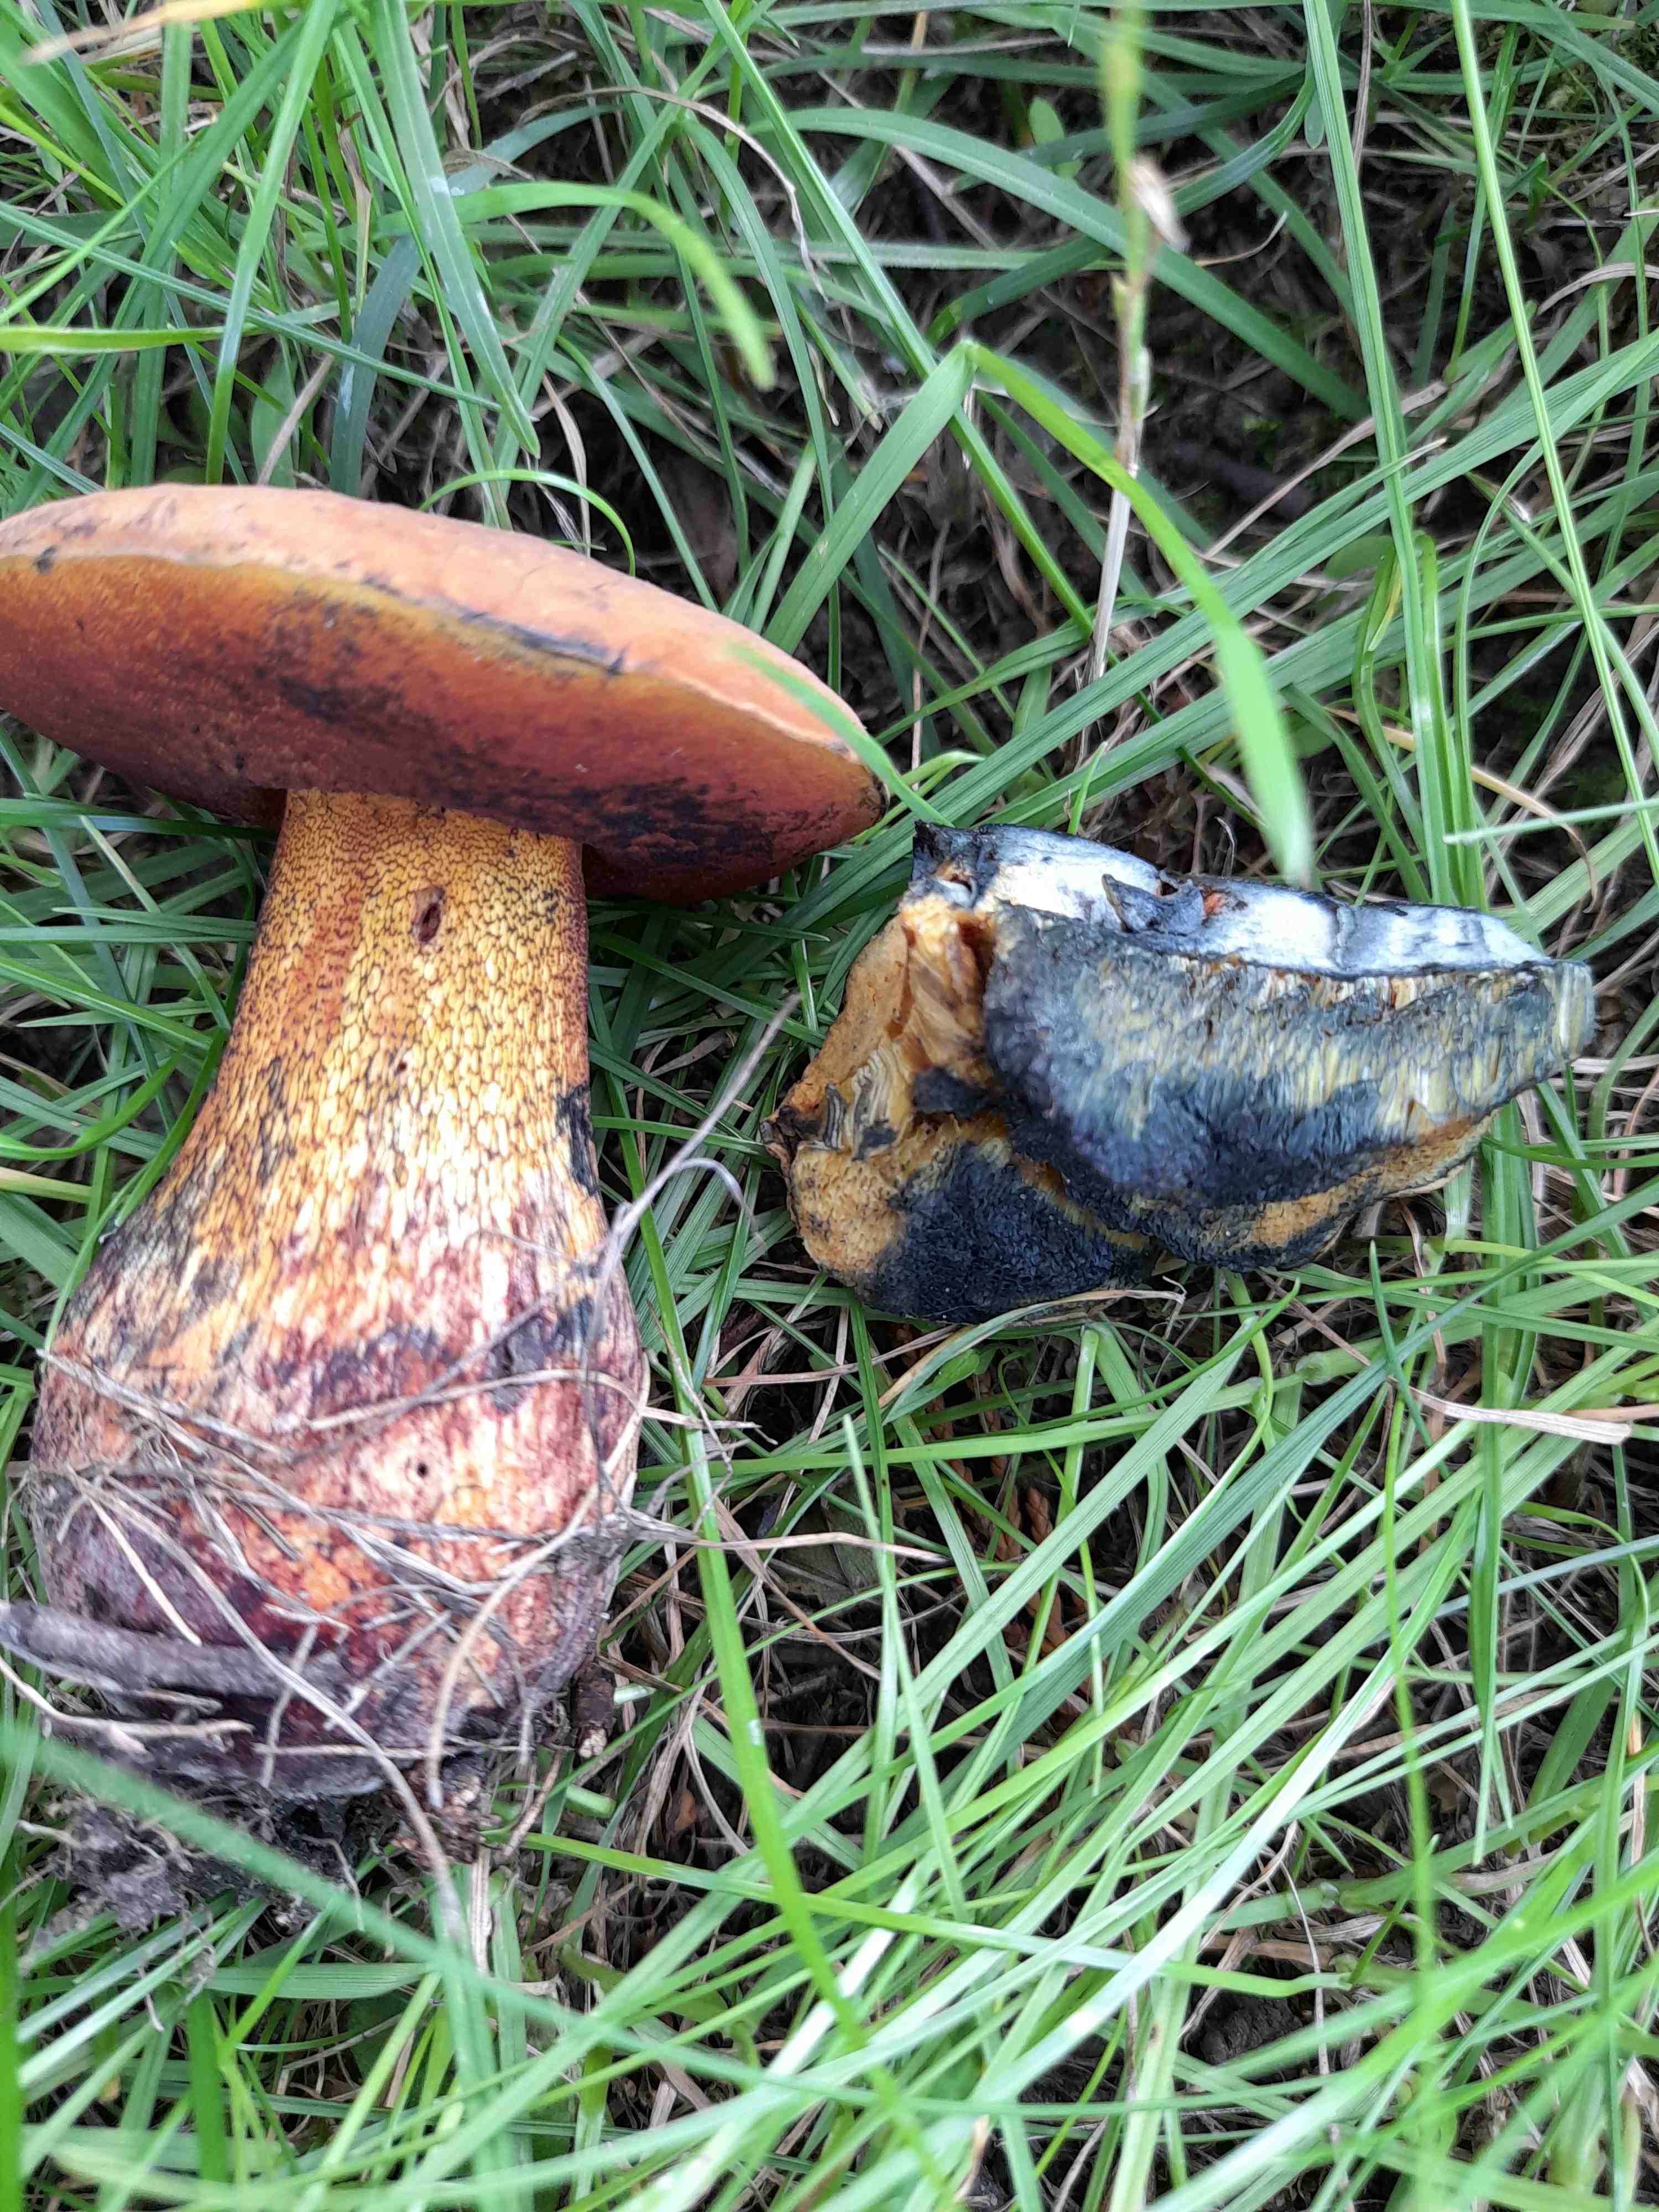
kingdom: Fungi
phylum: Basidiomycota
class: Agaricomycetes
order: Boletales
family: Boletaceae
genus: Suillellus
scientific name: Suillellus luridus
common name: netstokket indigorørhat
